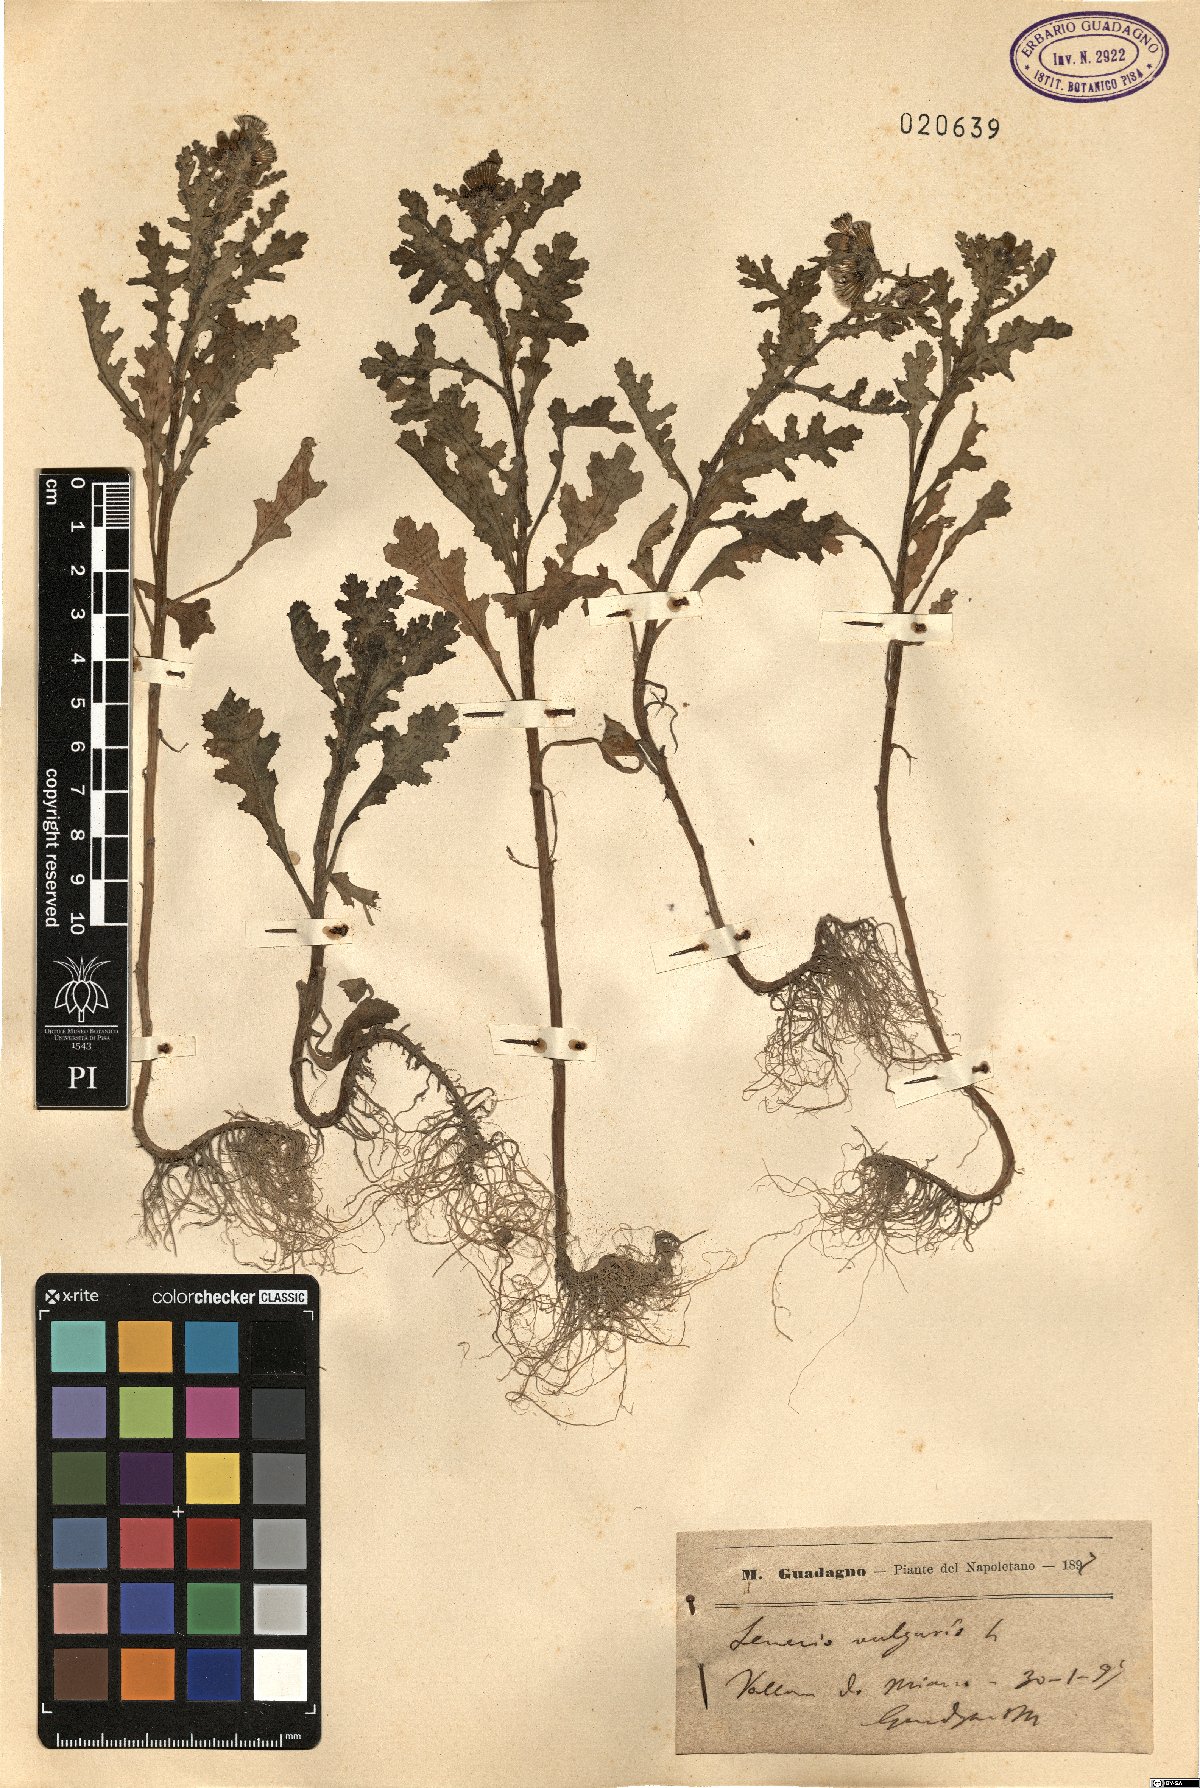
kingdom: Plantae
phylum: Tracheophyta
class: Magnoliopsida
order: Asterales
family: Asteraceae
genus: Senecio
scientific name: Senecio vulgaris
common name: Old-man-in-the-spring
